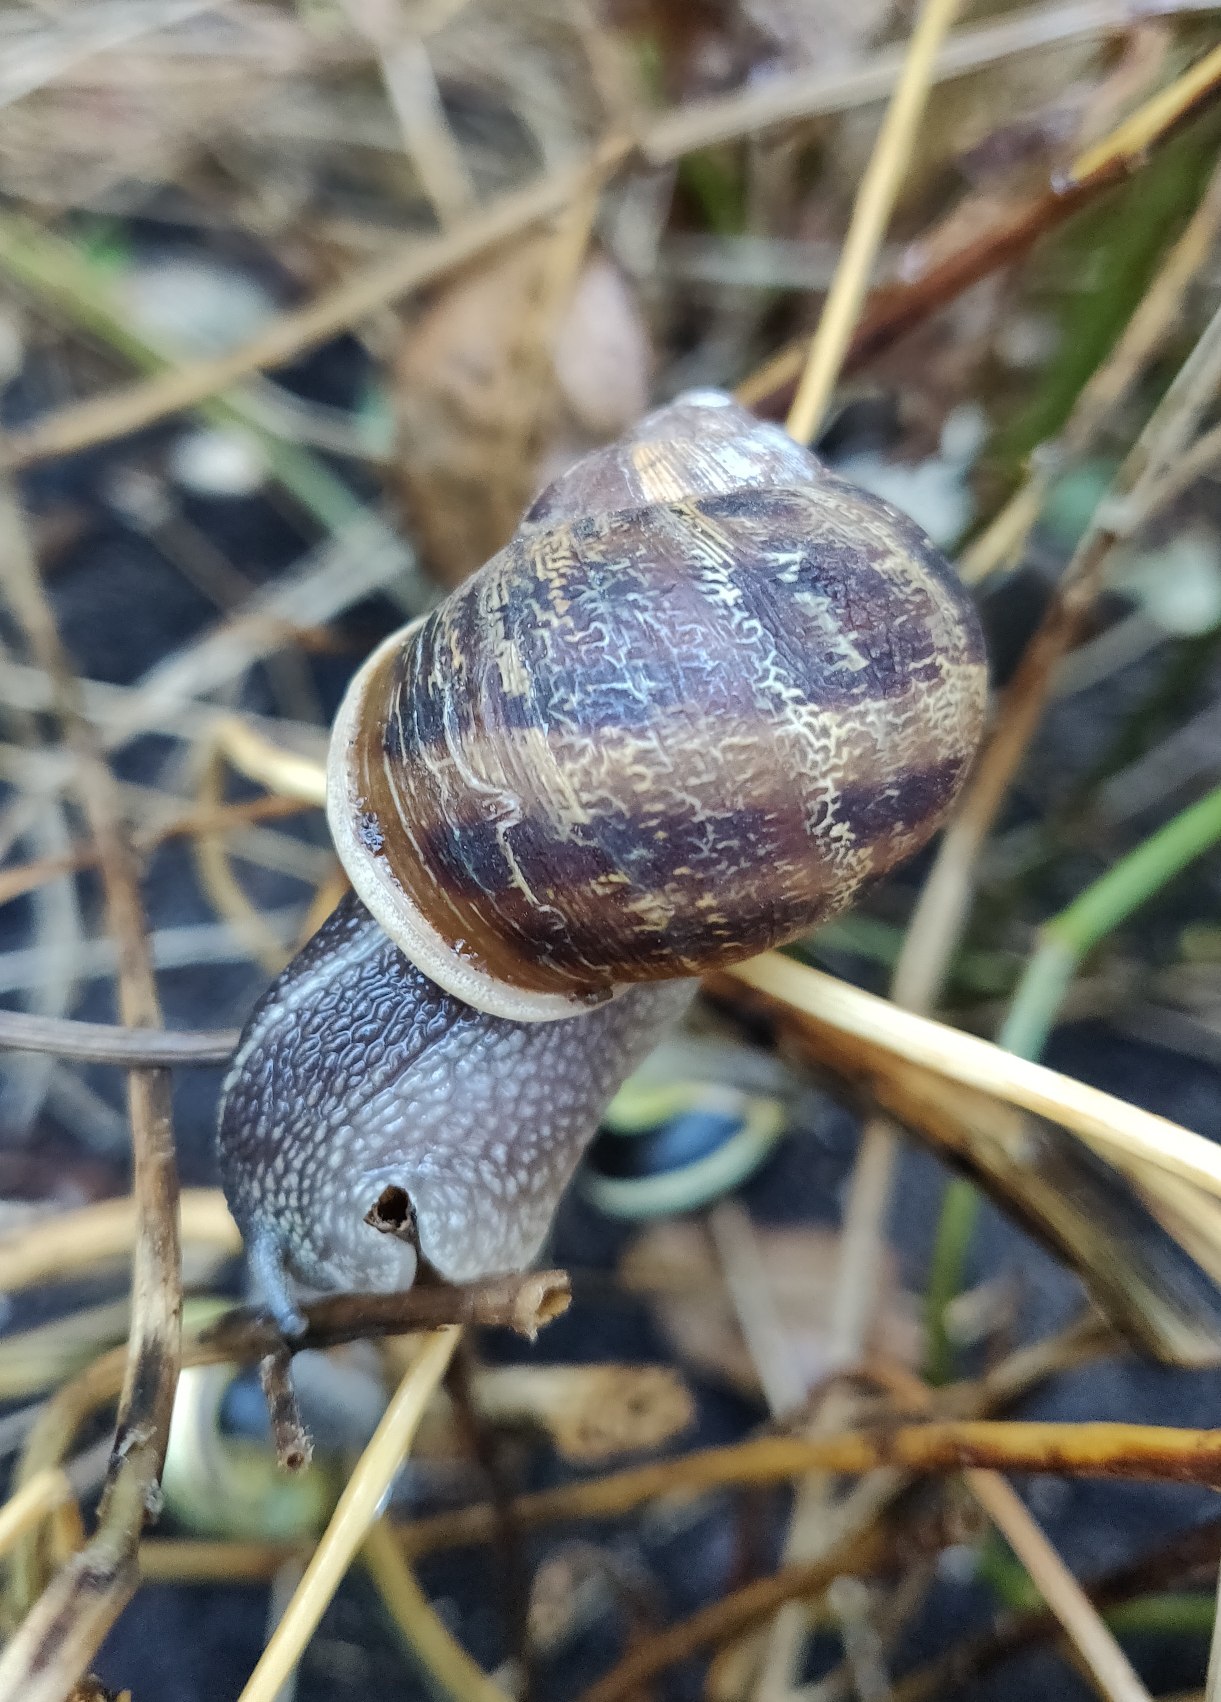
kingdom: Animalia
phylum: Mollusca
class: Gastropoda
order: Stylommatophora
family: Helicidae
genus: Cornu
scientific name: Cornu aspersum
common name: Plettet voldsnegl
